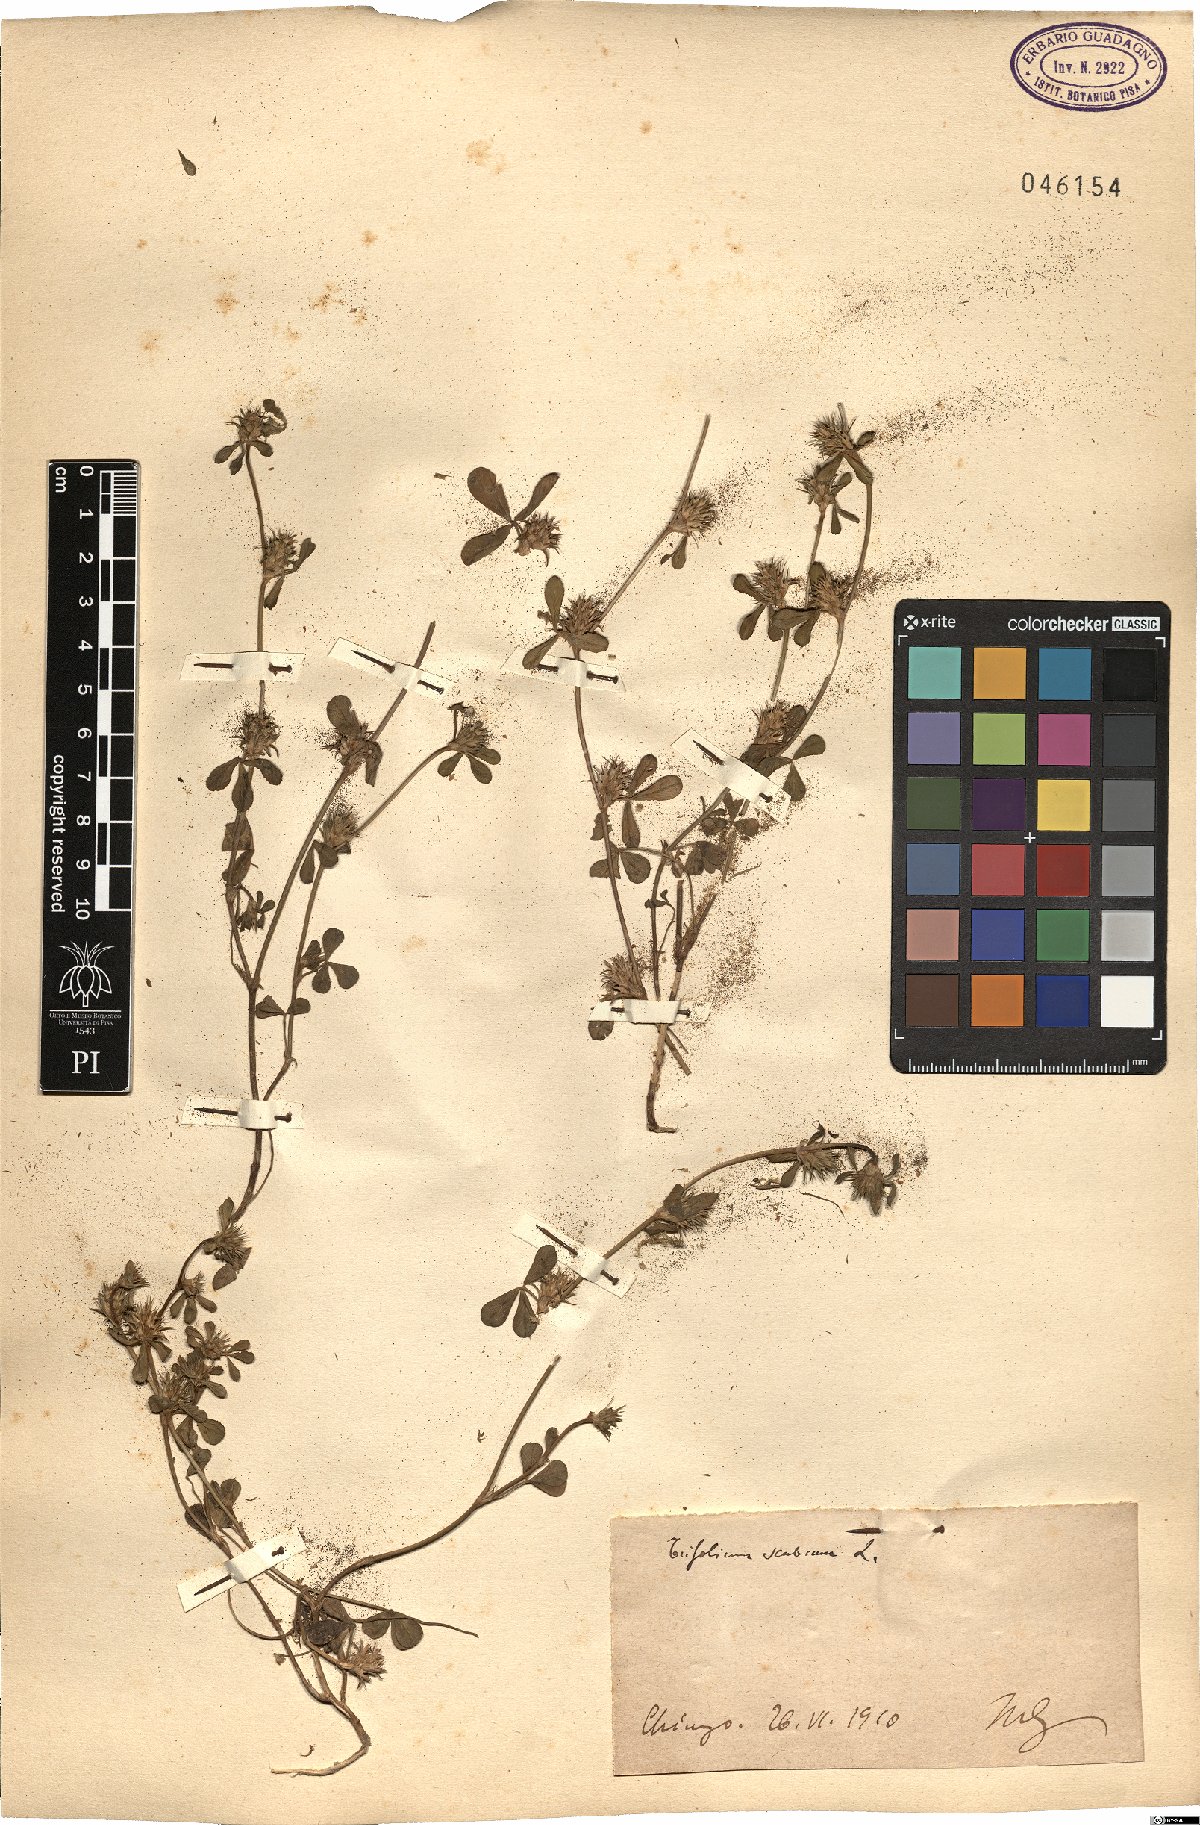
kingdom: Plantae
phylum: Tracheophyta
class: Magnoliopsida
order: Fabales
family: Fabaceae
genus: Trifolium
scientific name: Trifolium scabrum
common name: Rough clover
